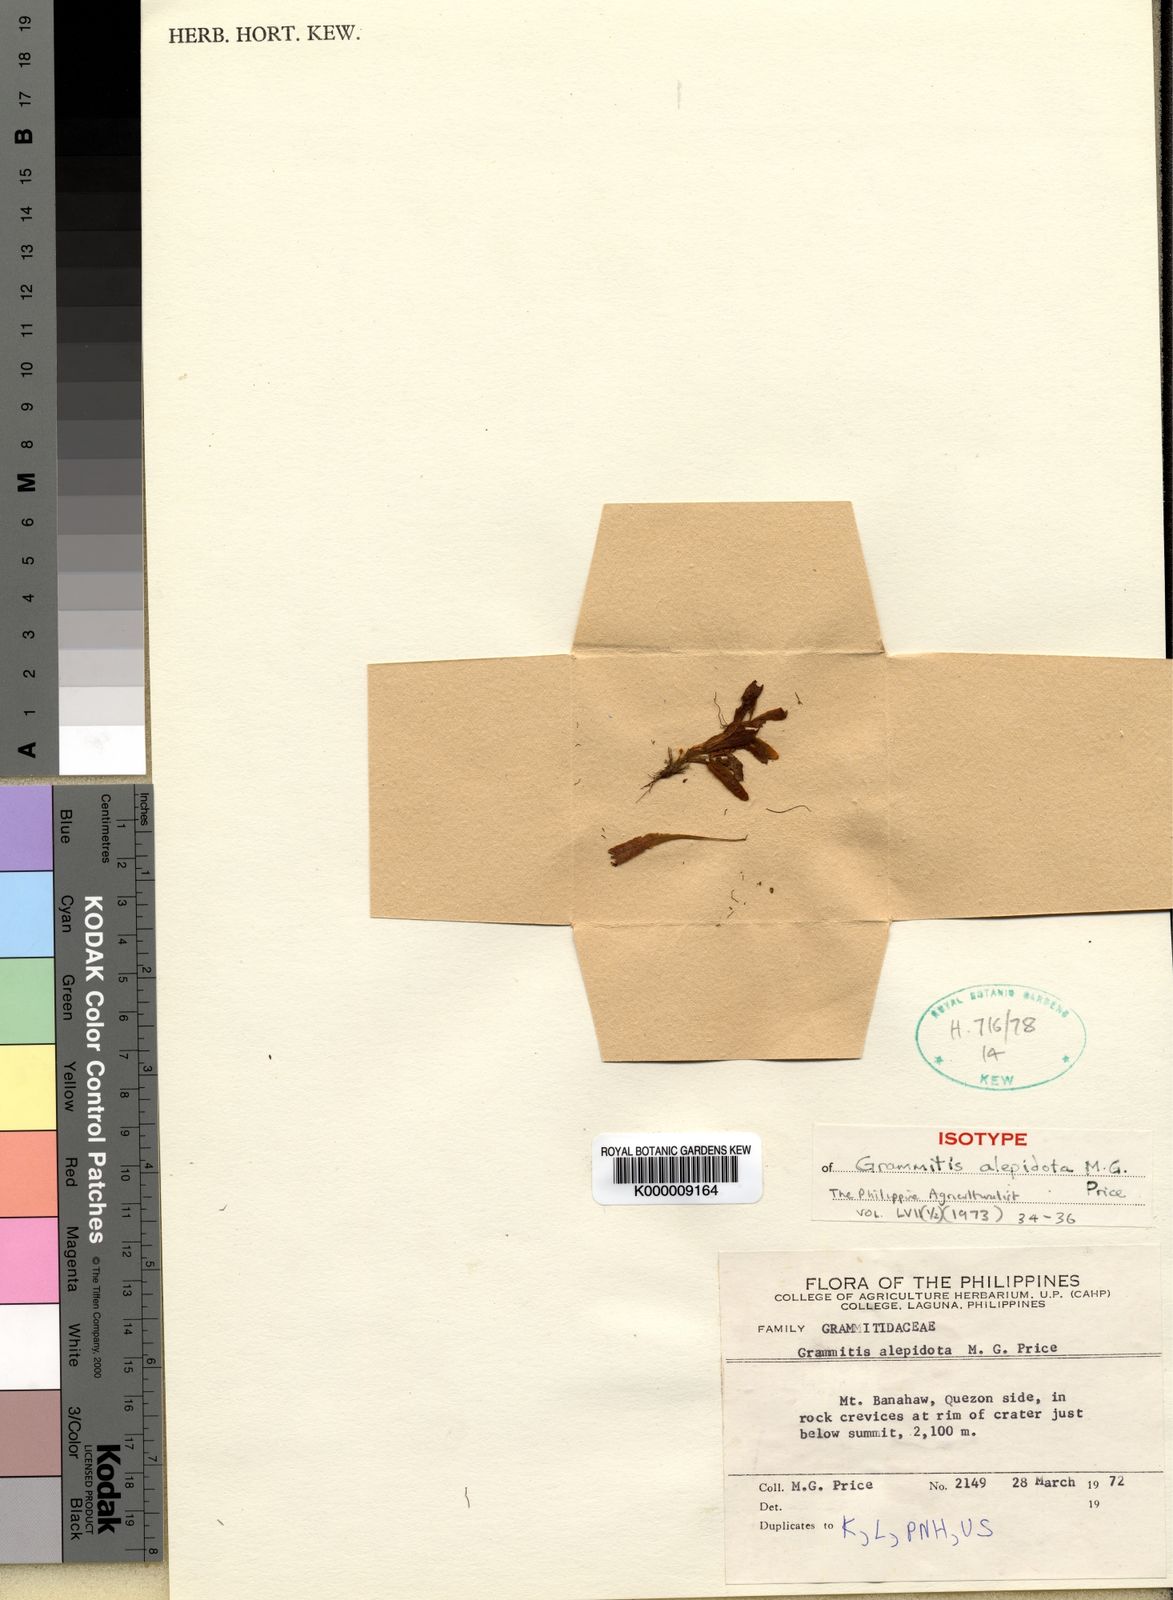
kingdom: Plantae
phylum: Tracheophyta
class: Polypodiopsida
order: Polypodiales
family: Polypodiaceae
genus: Oreogrammitis
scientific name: Oreogrammitis beddomeana
